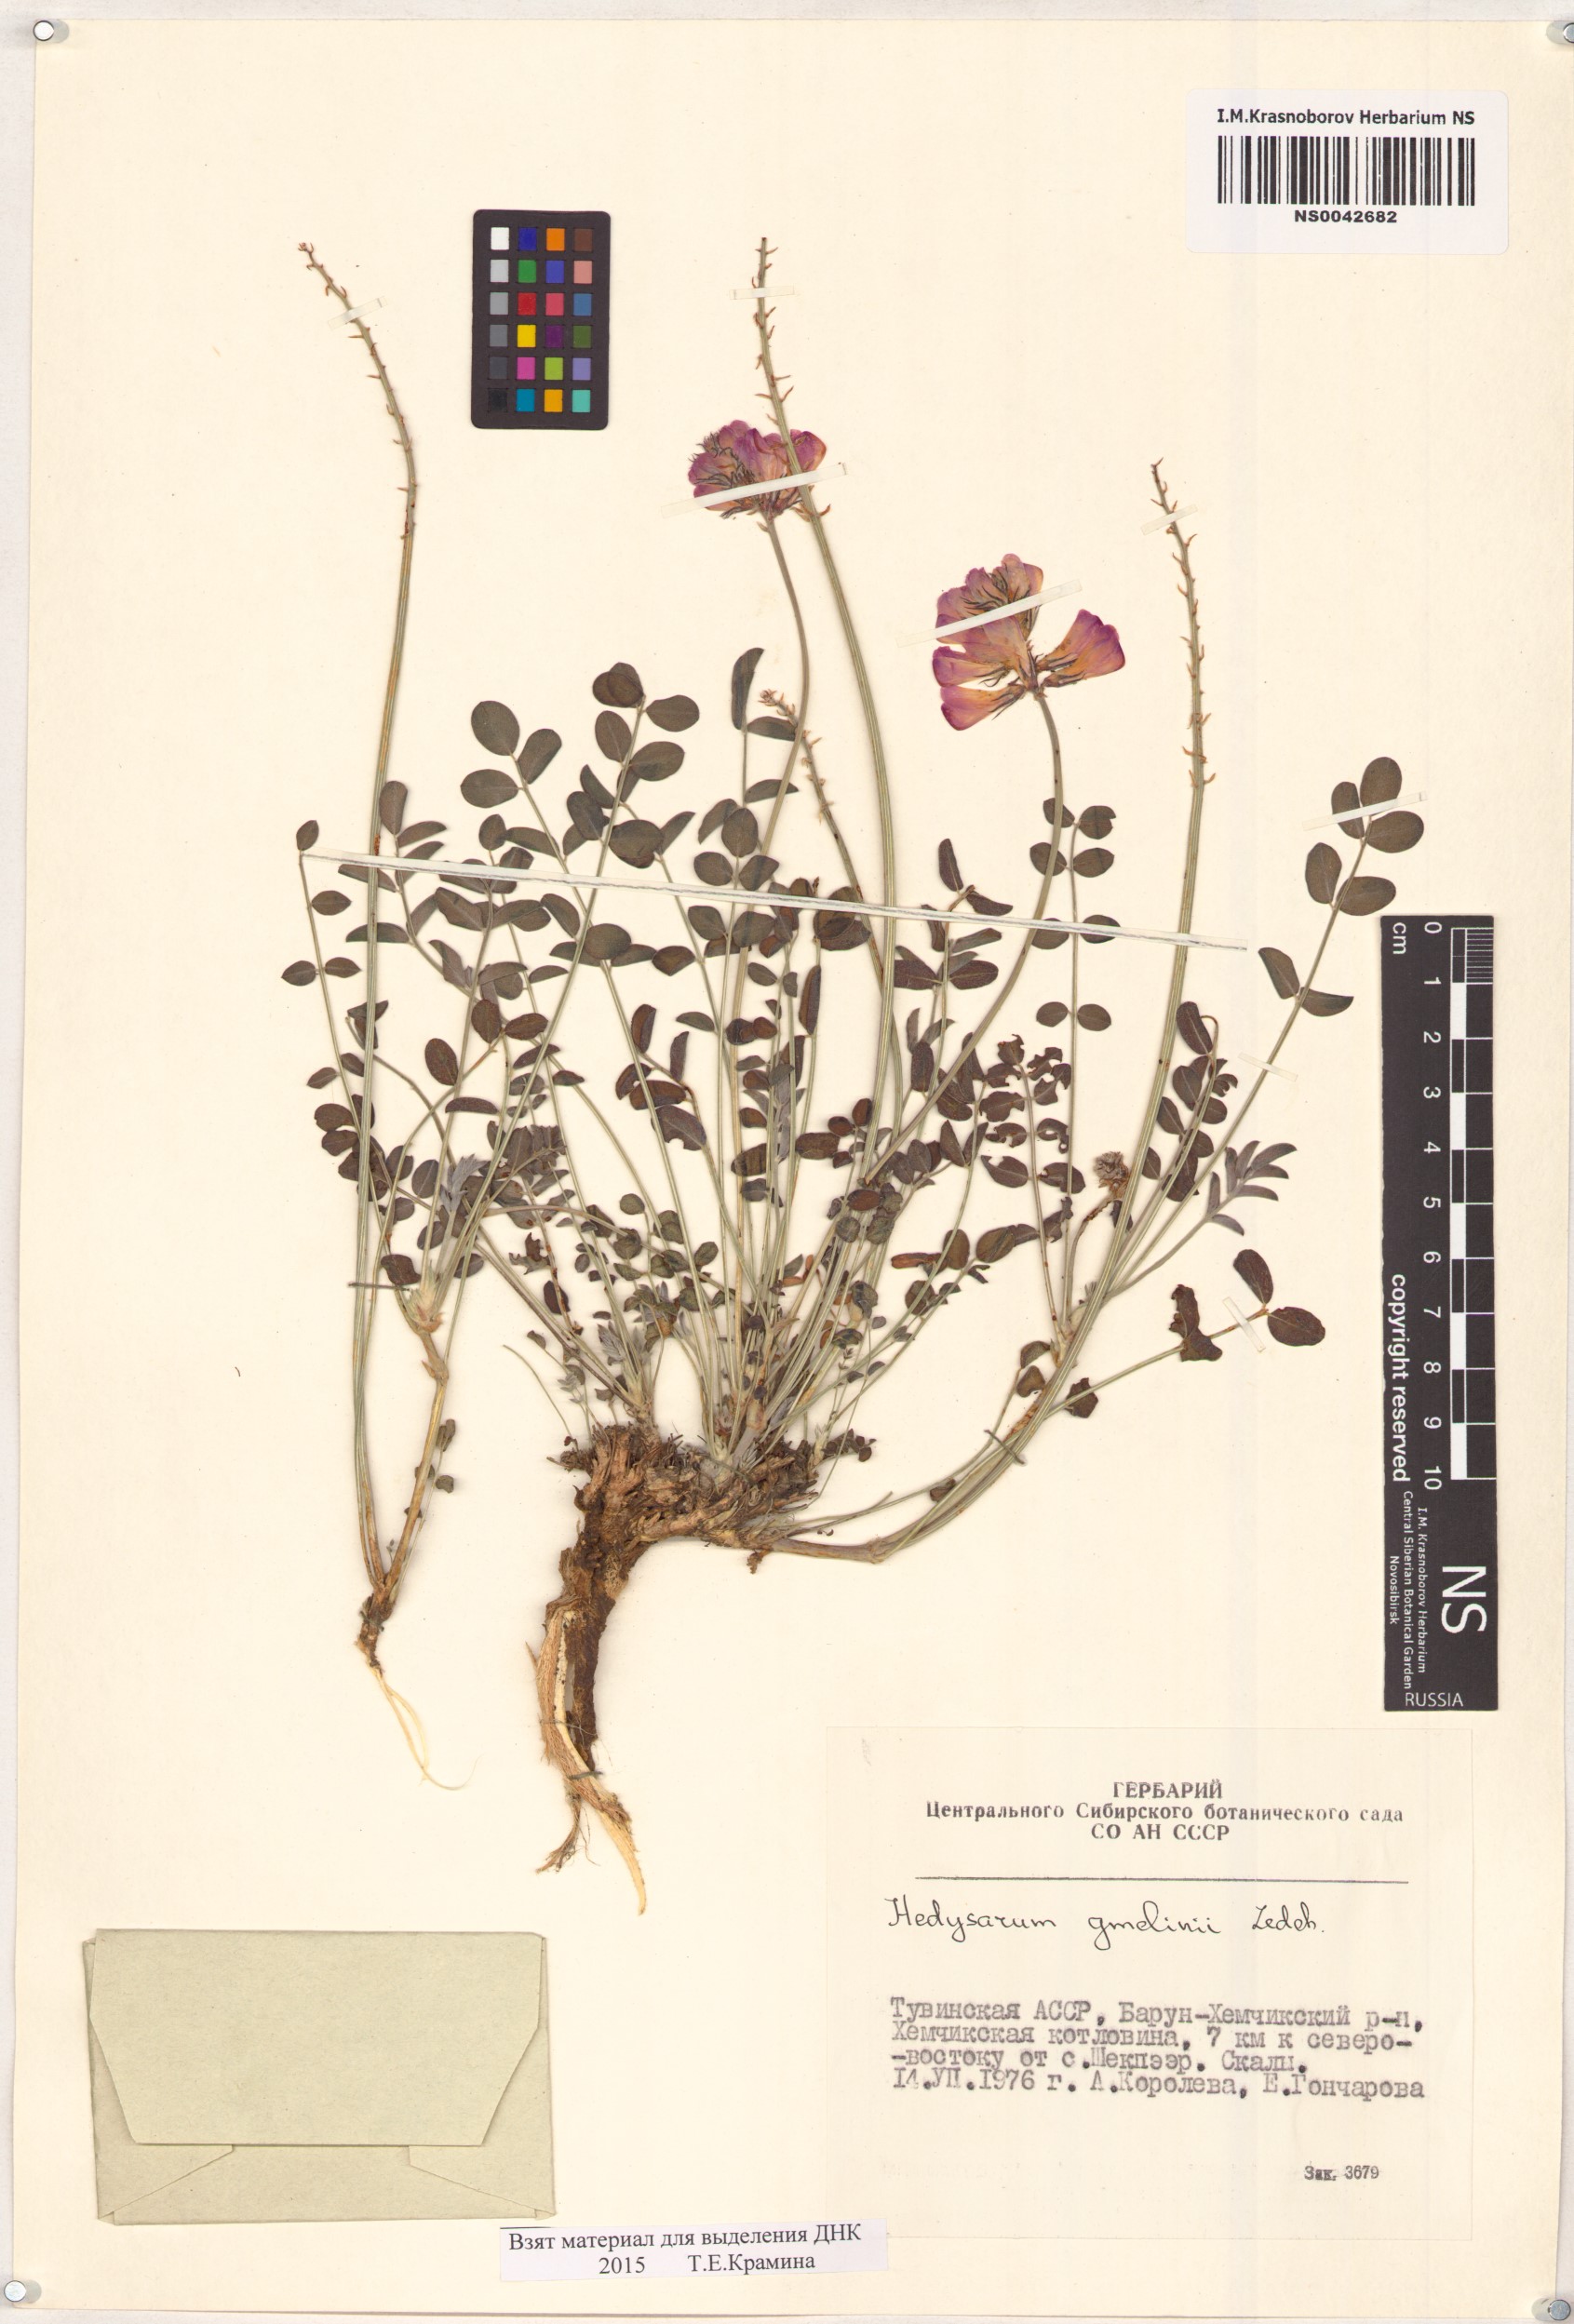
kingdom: Plantae
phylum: Tracheophyta
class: Magnoliopsida
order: Fabales
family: Fabaceae
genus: Hedysarum
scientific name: Hedysarum gmelinii
